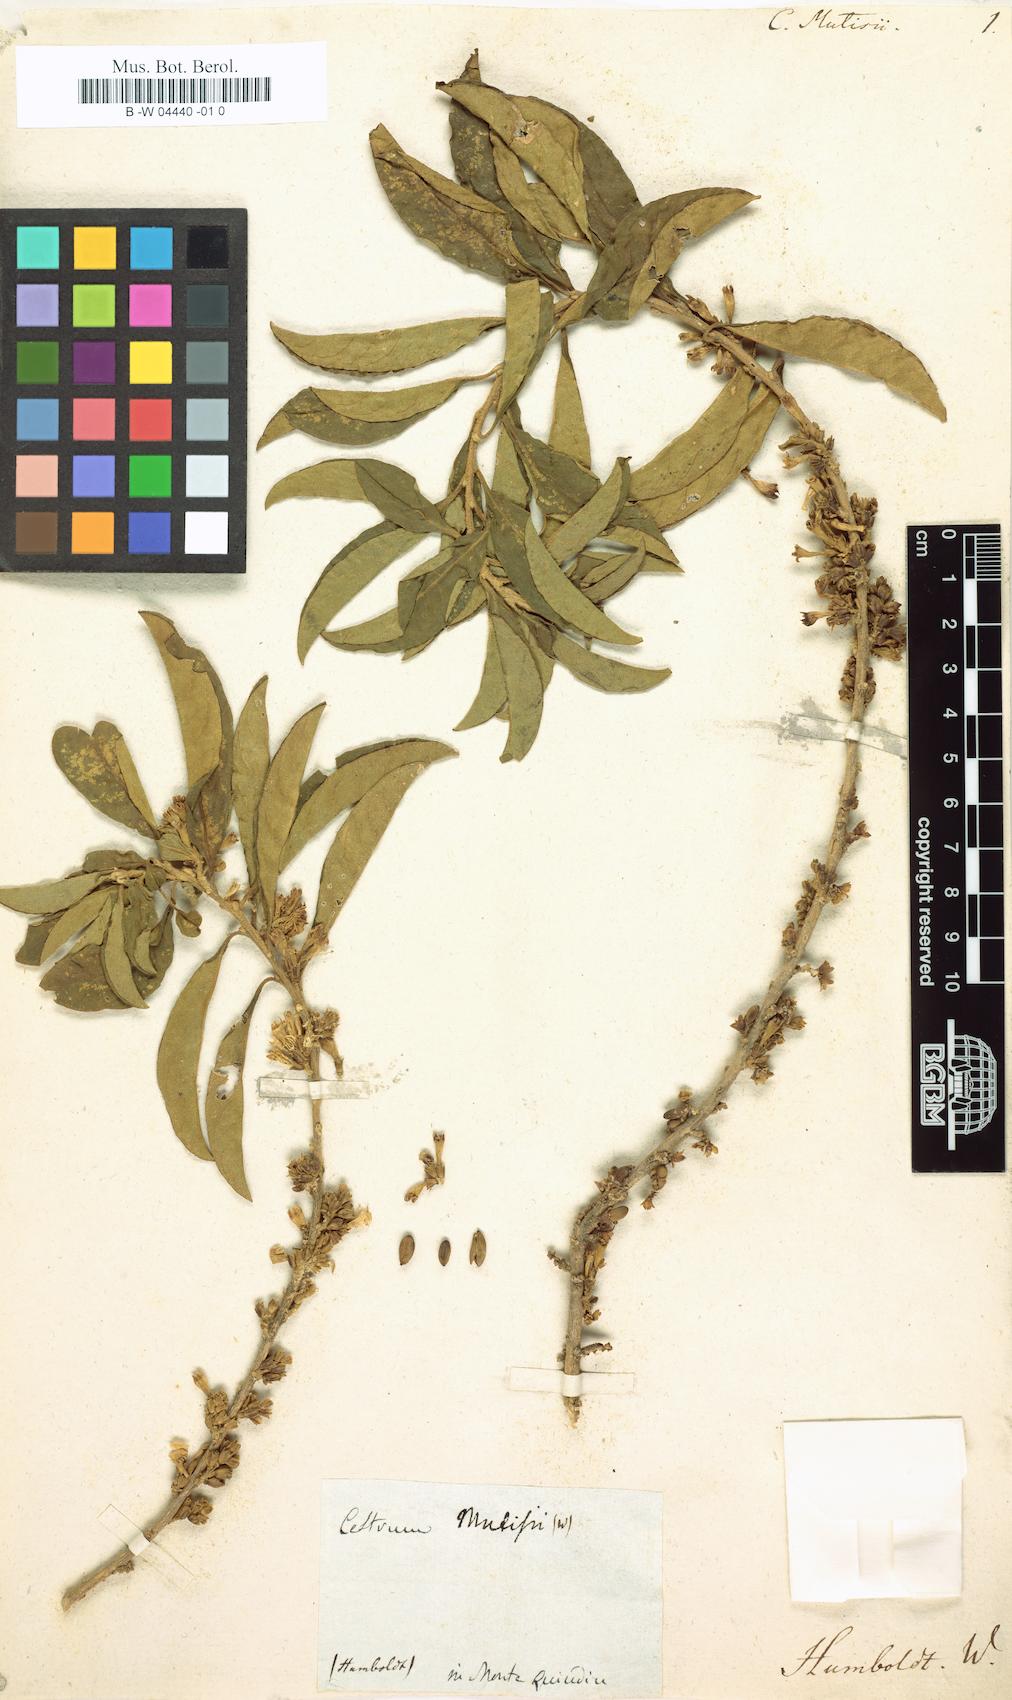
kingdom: Plantae
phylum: Tracheophyta
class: Magnoliopsida
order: Solanales
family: Solanaceae
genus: Cestrum
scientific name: Cestrum mutisii
